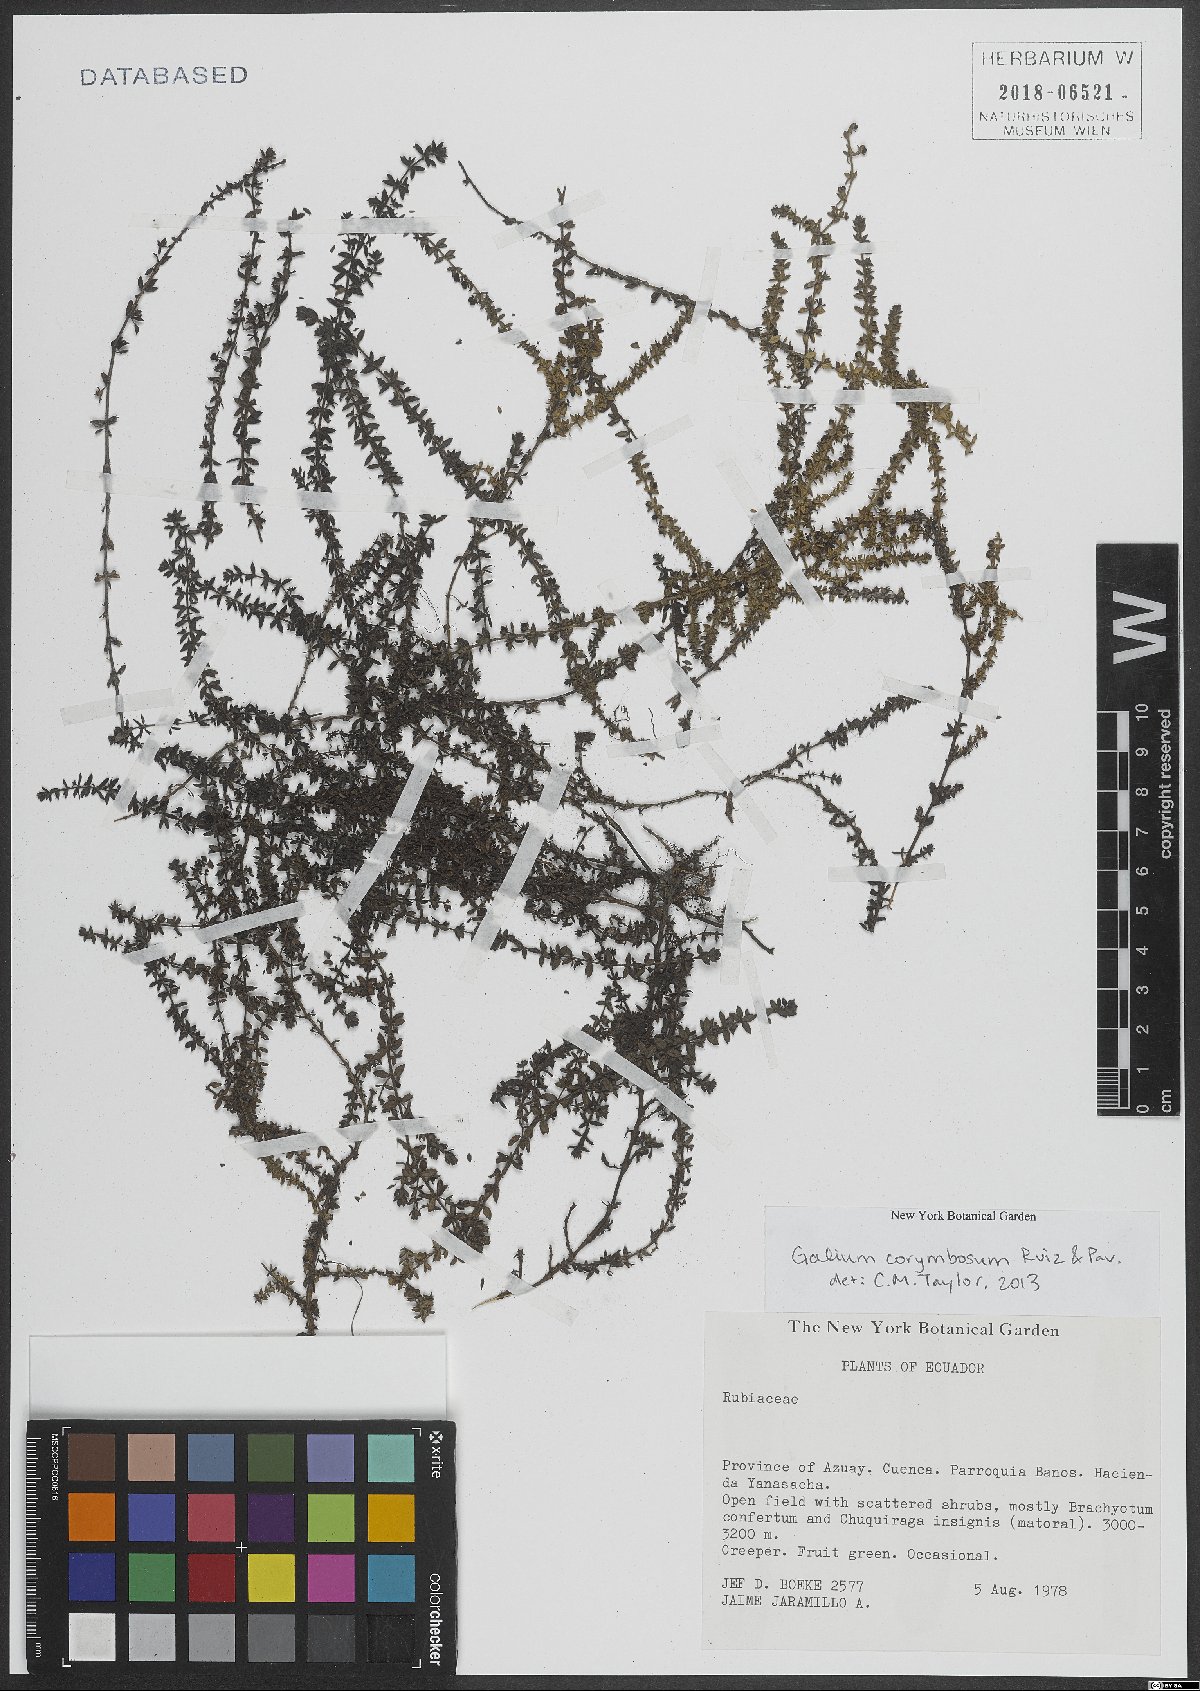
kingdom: Plantae
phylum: Tracheophyta
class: Magnoliopsida
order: Gentianales
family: Rubiaceae
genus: Galium
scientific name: Galium corymbosum
